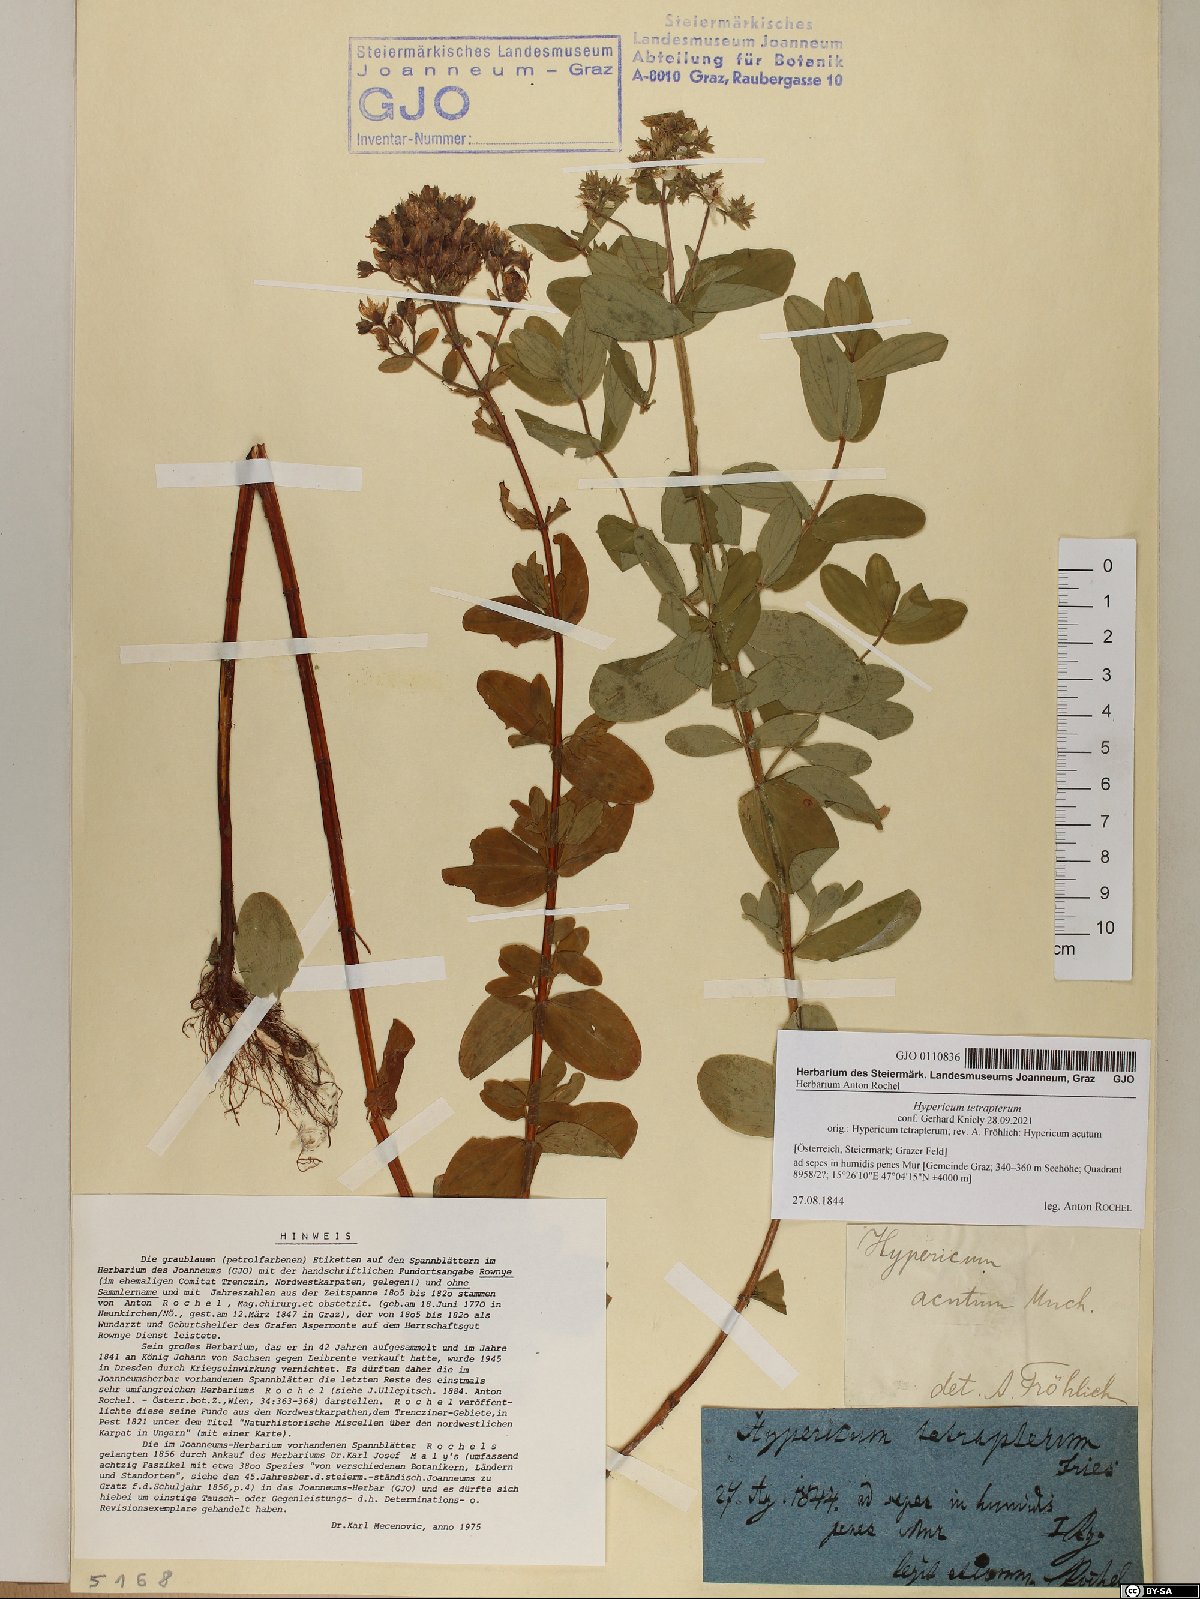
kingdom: Plantae
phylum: Tracheophyta
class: Magnoliopsida
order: Malpighiales
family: Hypericaceae
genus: Hypericum
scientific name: Hypericum tetrapterum
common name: Square-stalked st. john's-wort
